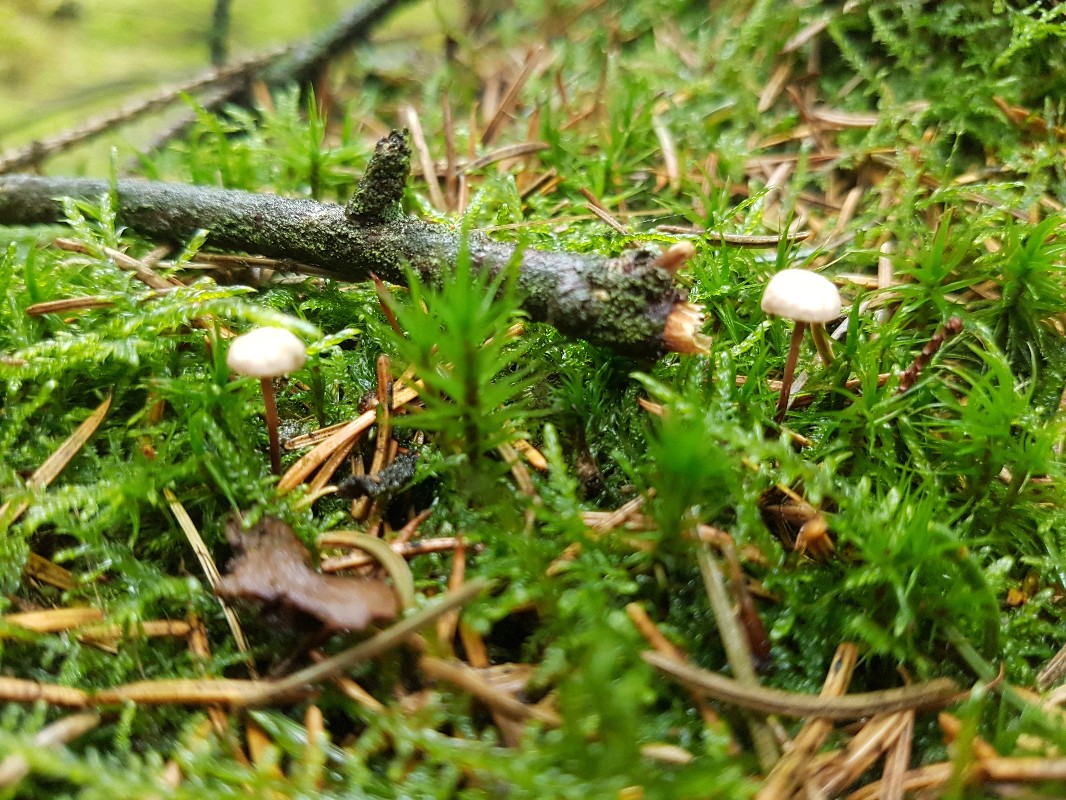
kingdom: Fungi
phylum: Basidiomycota
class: Agaricomycetes
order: Agaricales
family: Omphalotaceae
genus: Paragymnopus
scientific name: Paragymnopus perforans
